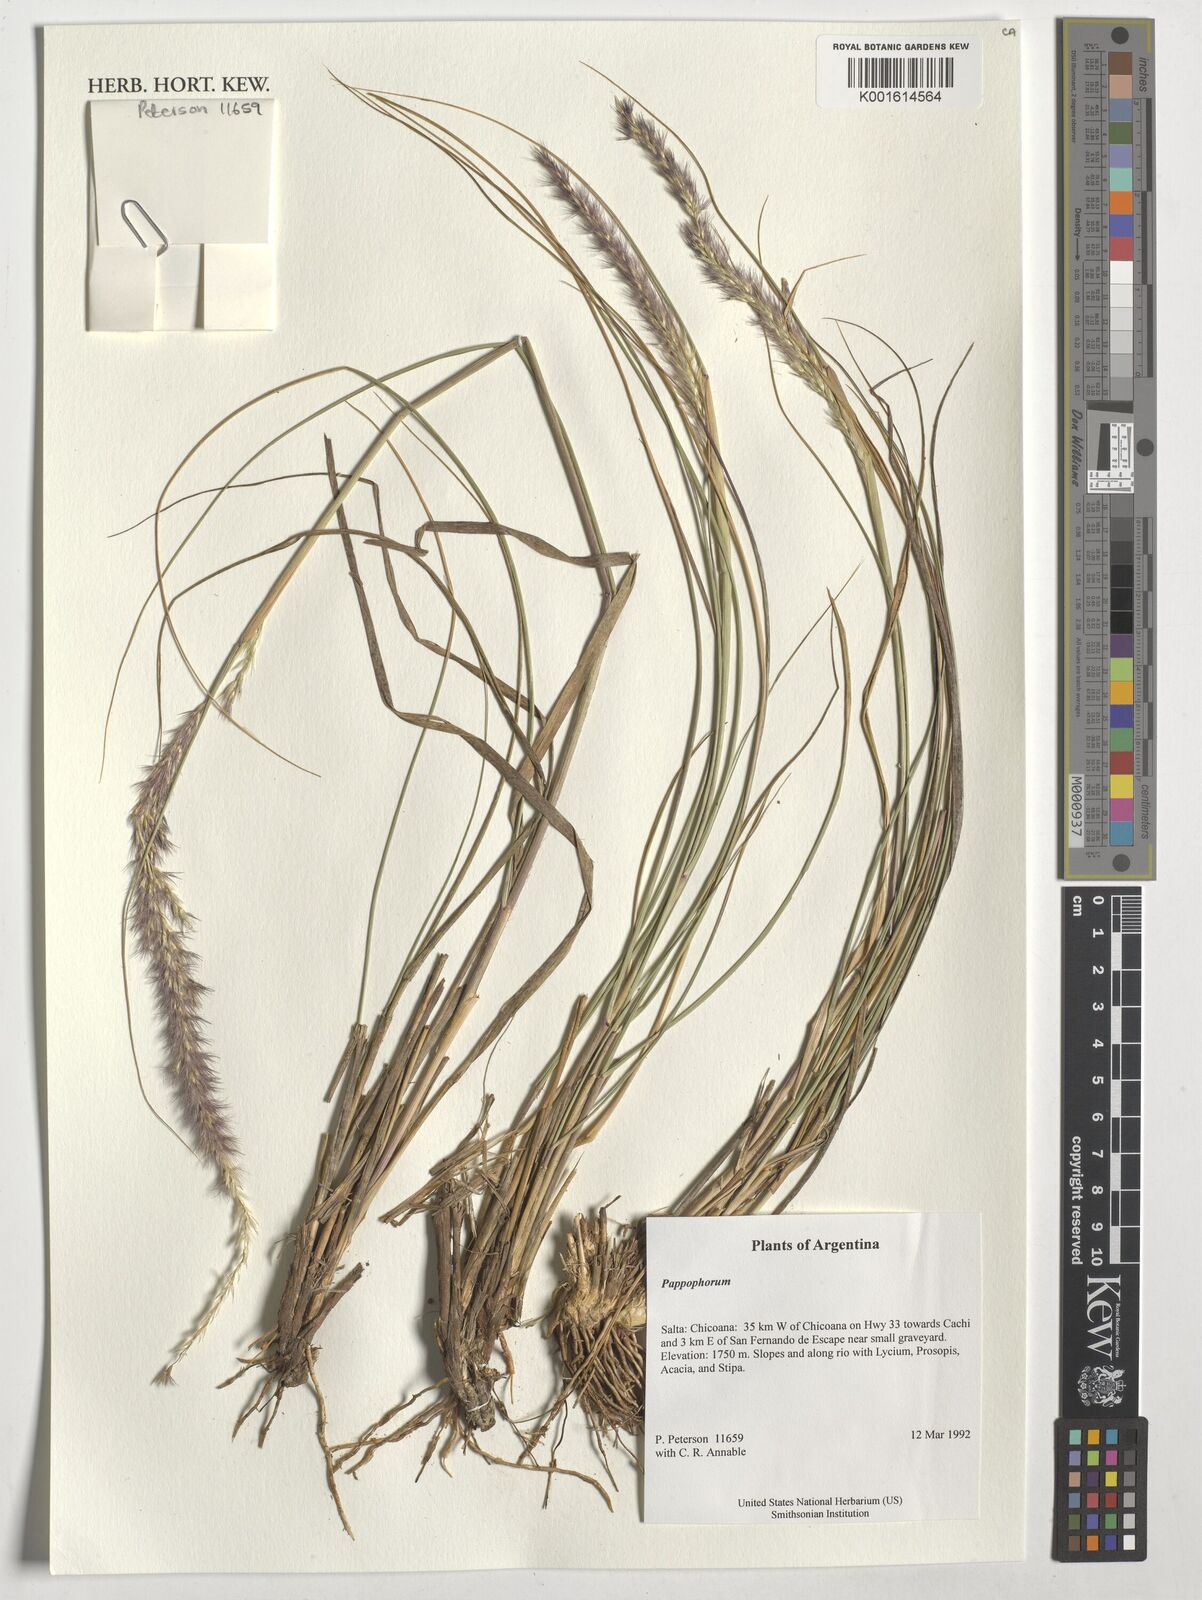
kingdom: Plantae
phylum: Tracheophyta
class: Liliopsida
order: Poales
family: Poaceae
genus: Pappophorum
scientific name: Pappophorum
